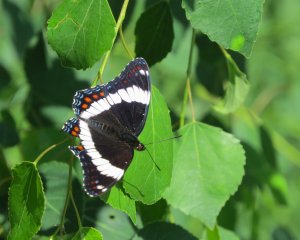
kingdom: Animalia
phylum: Arthropoda
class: Insecta
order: Lepidoptera
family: Nymphalidae
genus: Limenitis
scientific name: Limenitis arthemis
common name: Red-spotted Admiral
